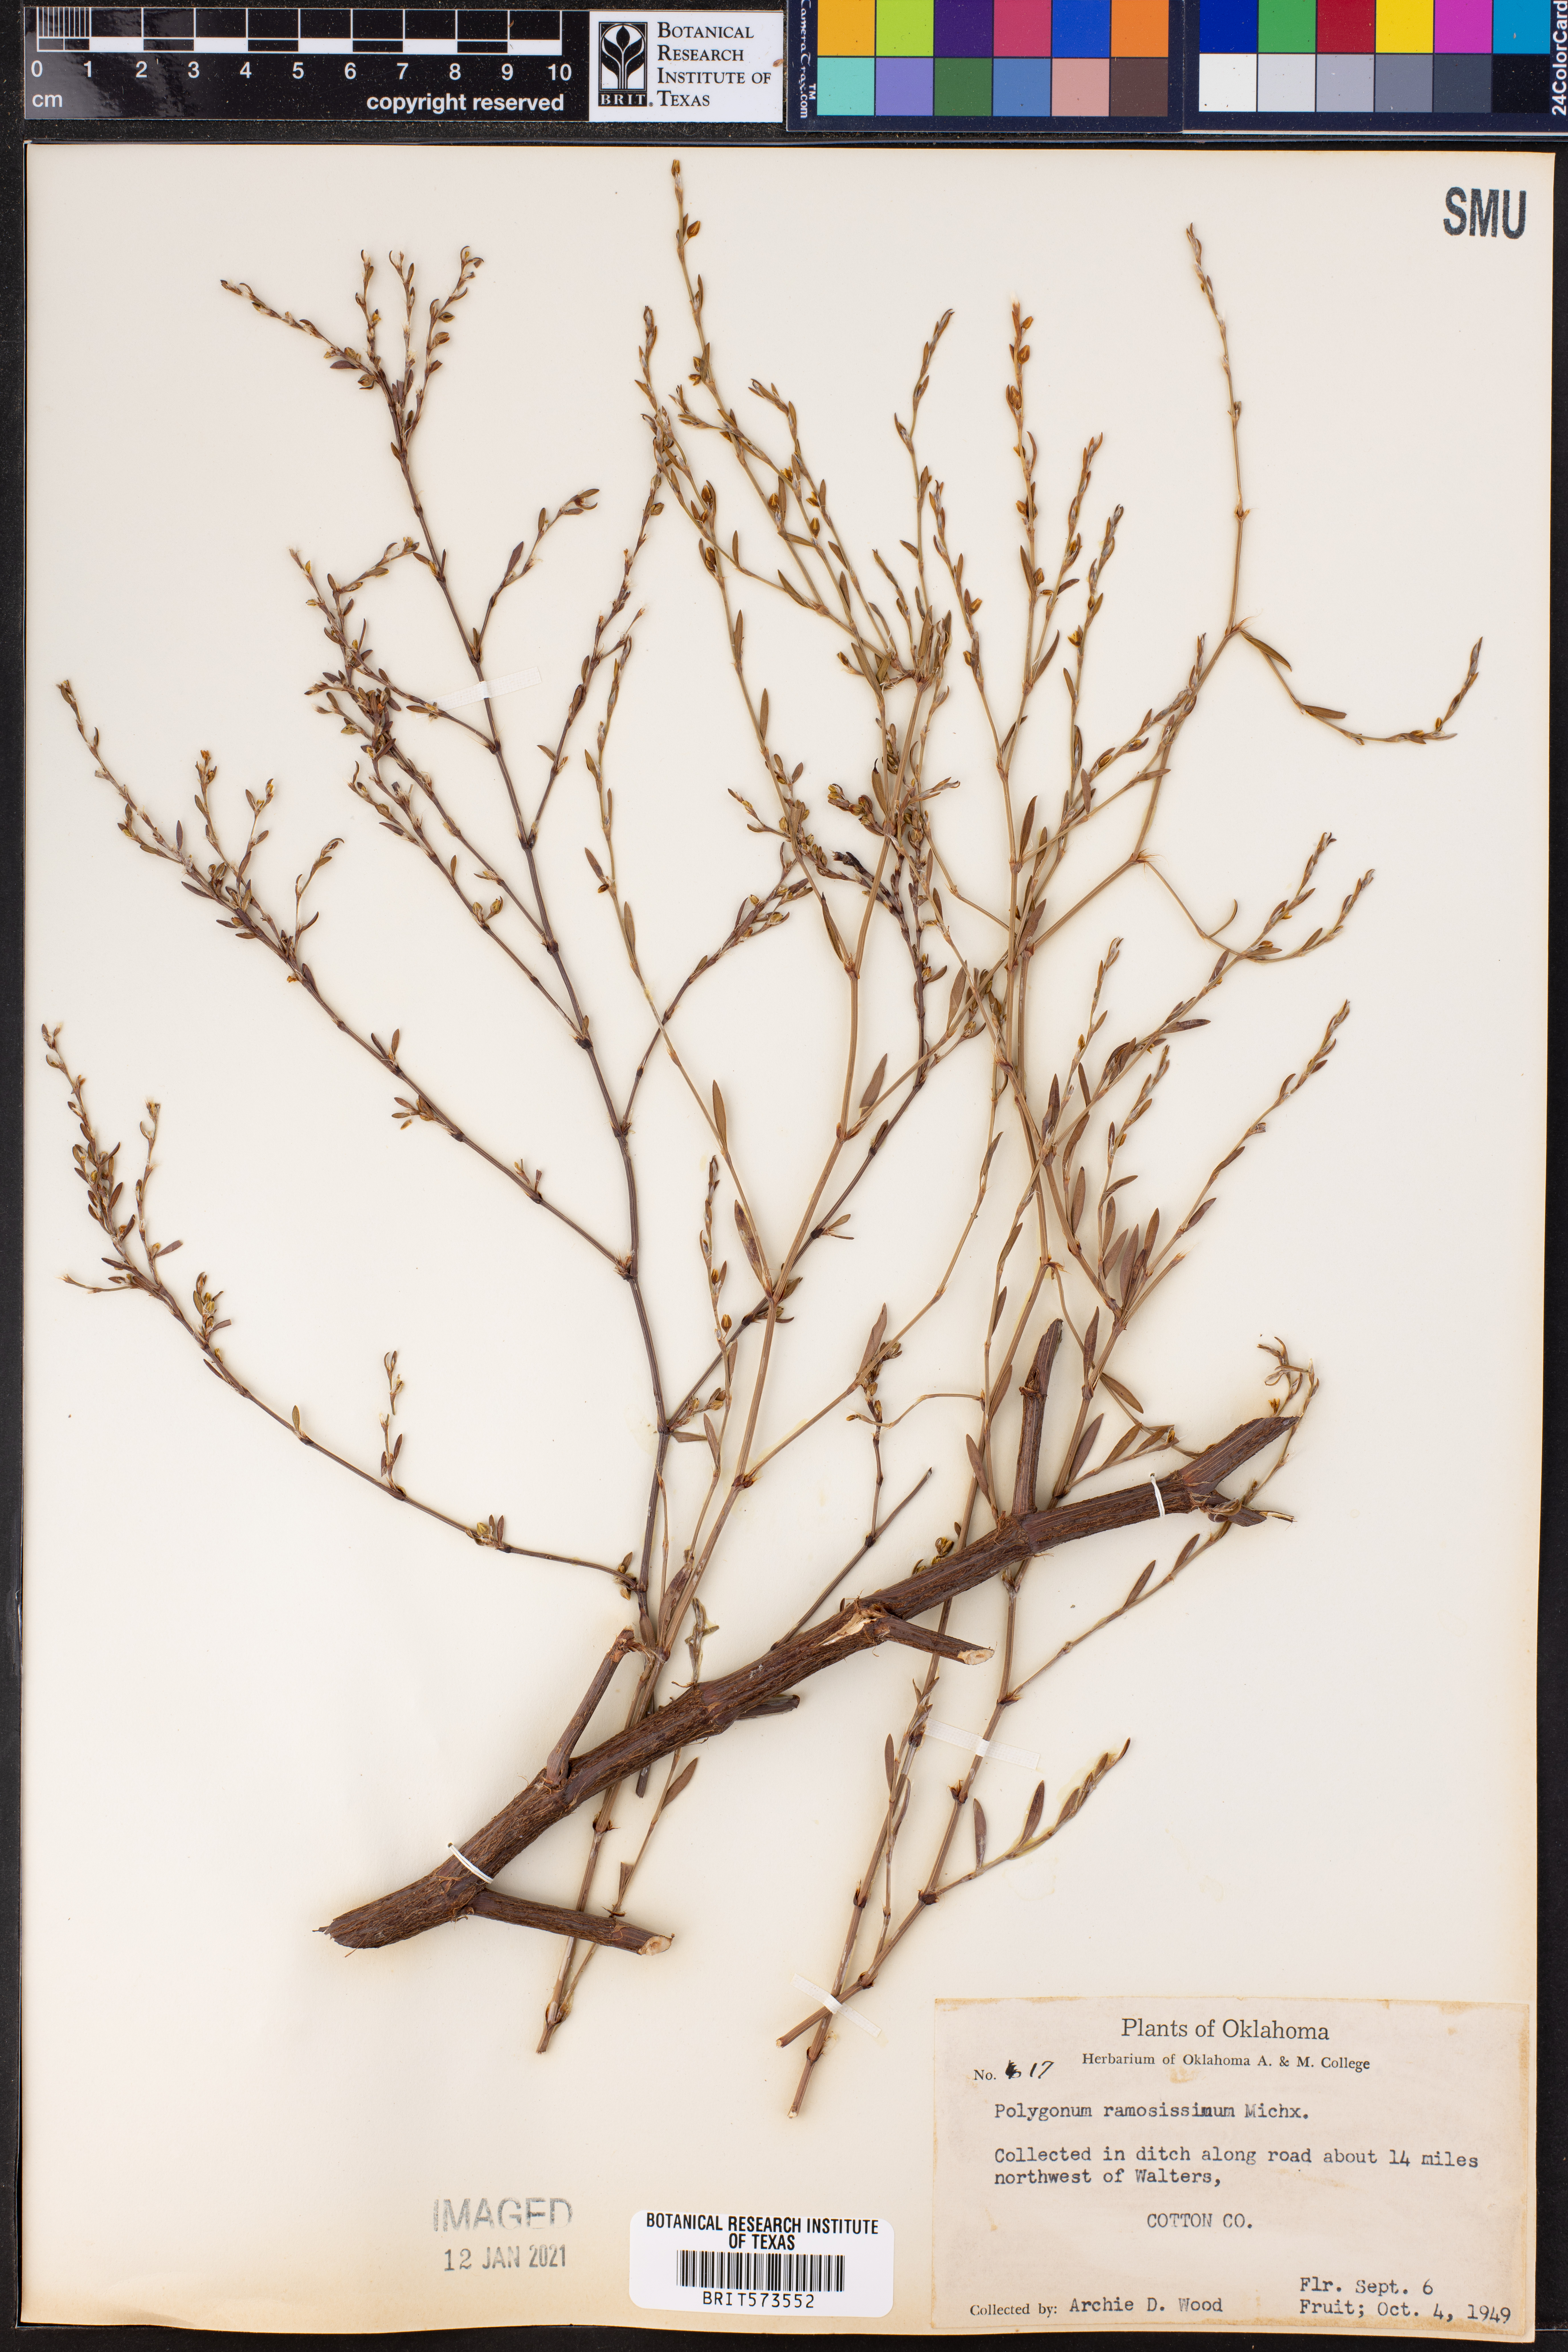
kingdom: Plantae
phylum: Tracheophyta
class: Magnoliopsida
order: Caryophyllales
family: Polygonaceae
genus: Polygonum
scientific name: Polygonum ramosissimum
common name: Bushy knotweed
